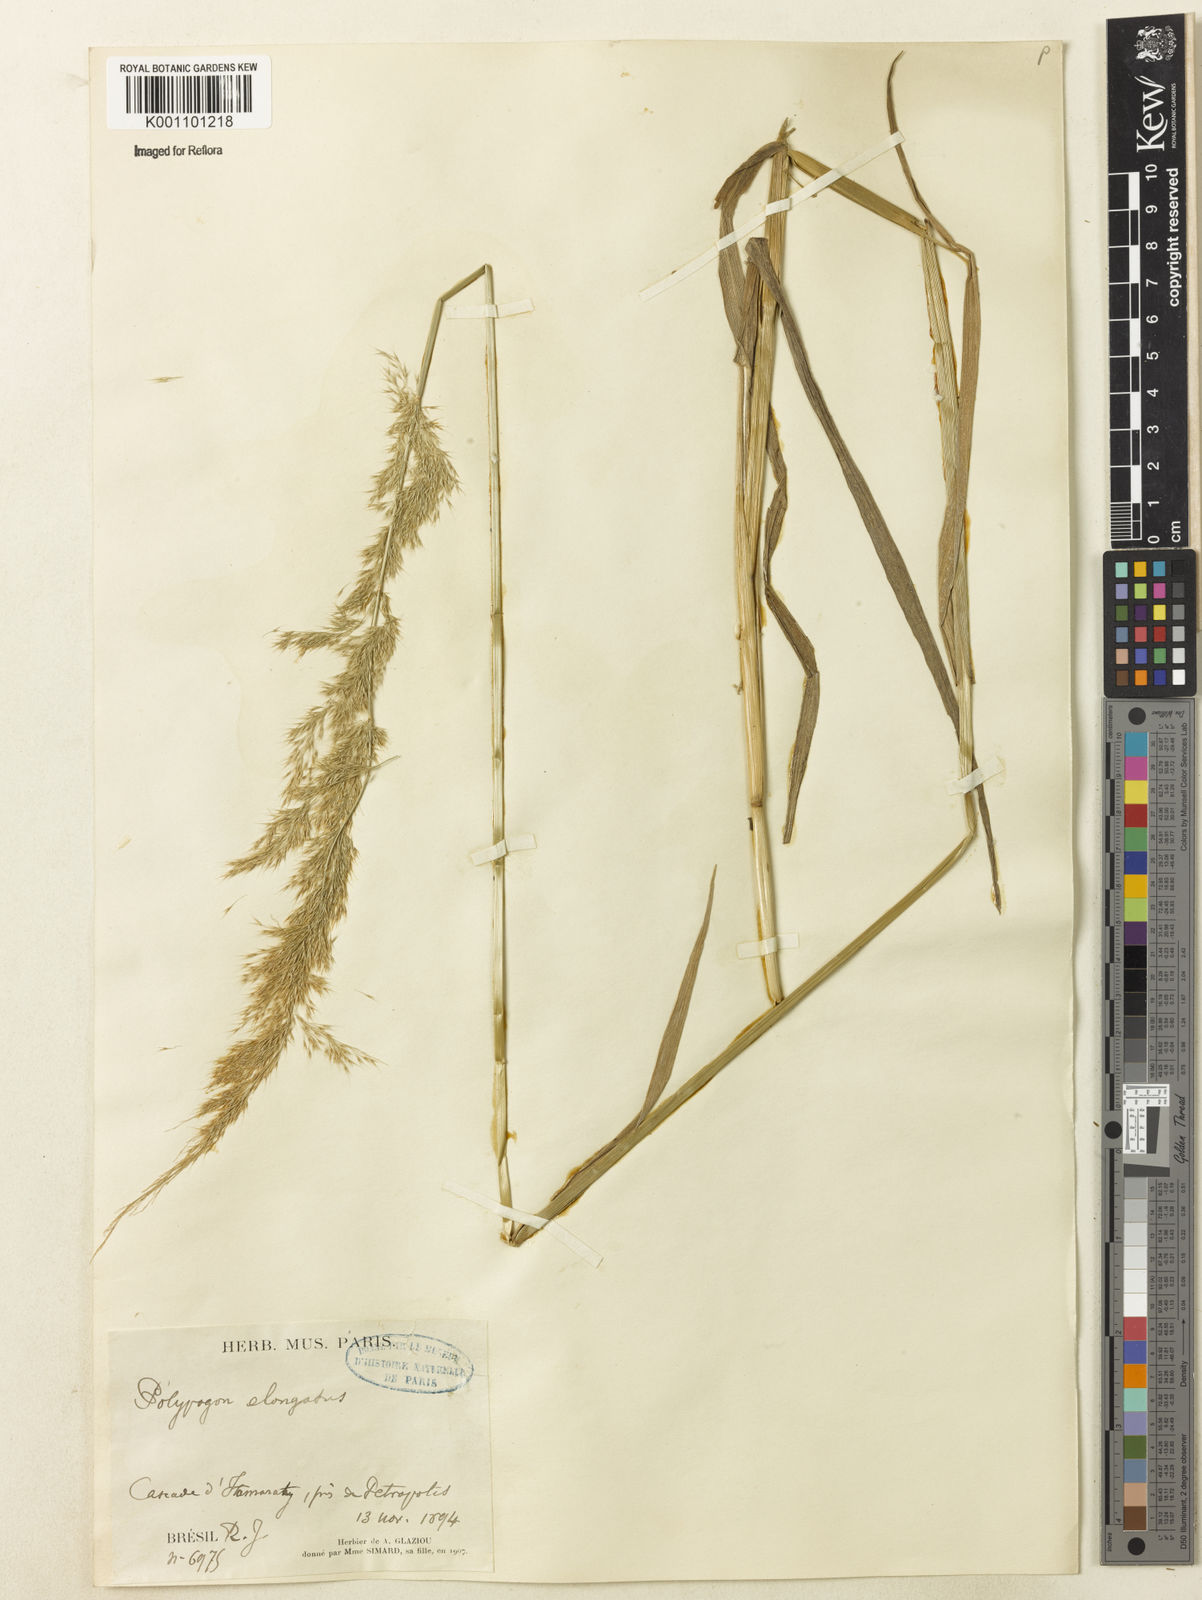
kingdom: Plantae
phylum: Tracheophyta
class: Liliopsida
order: Poales
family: Poaceae
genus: Polypogon
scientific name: Polypogon elongatus
